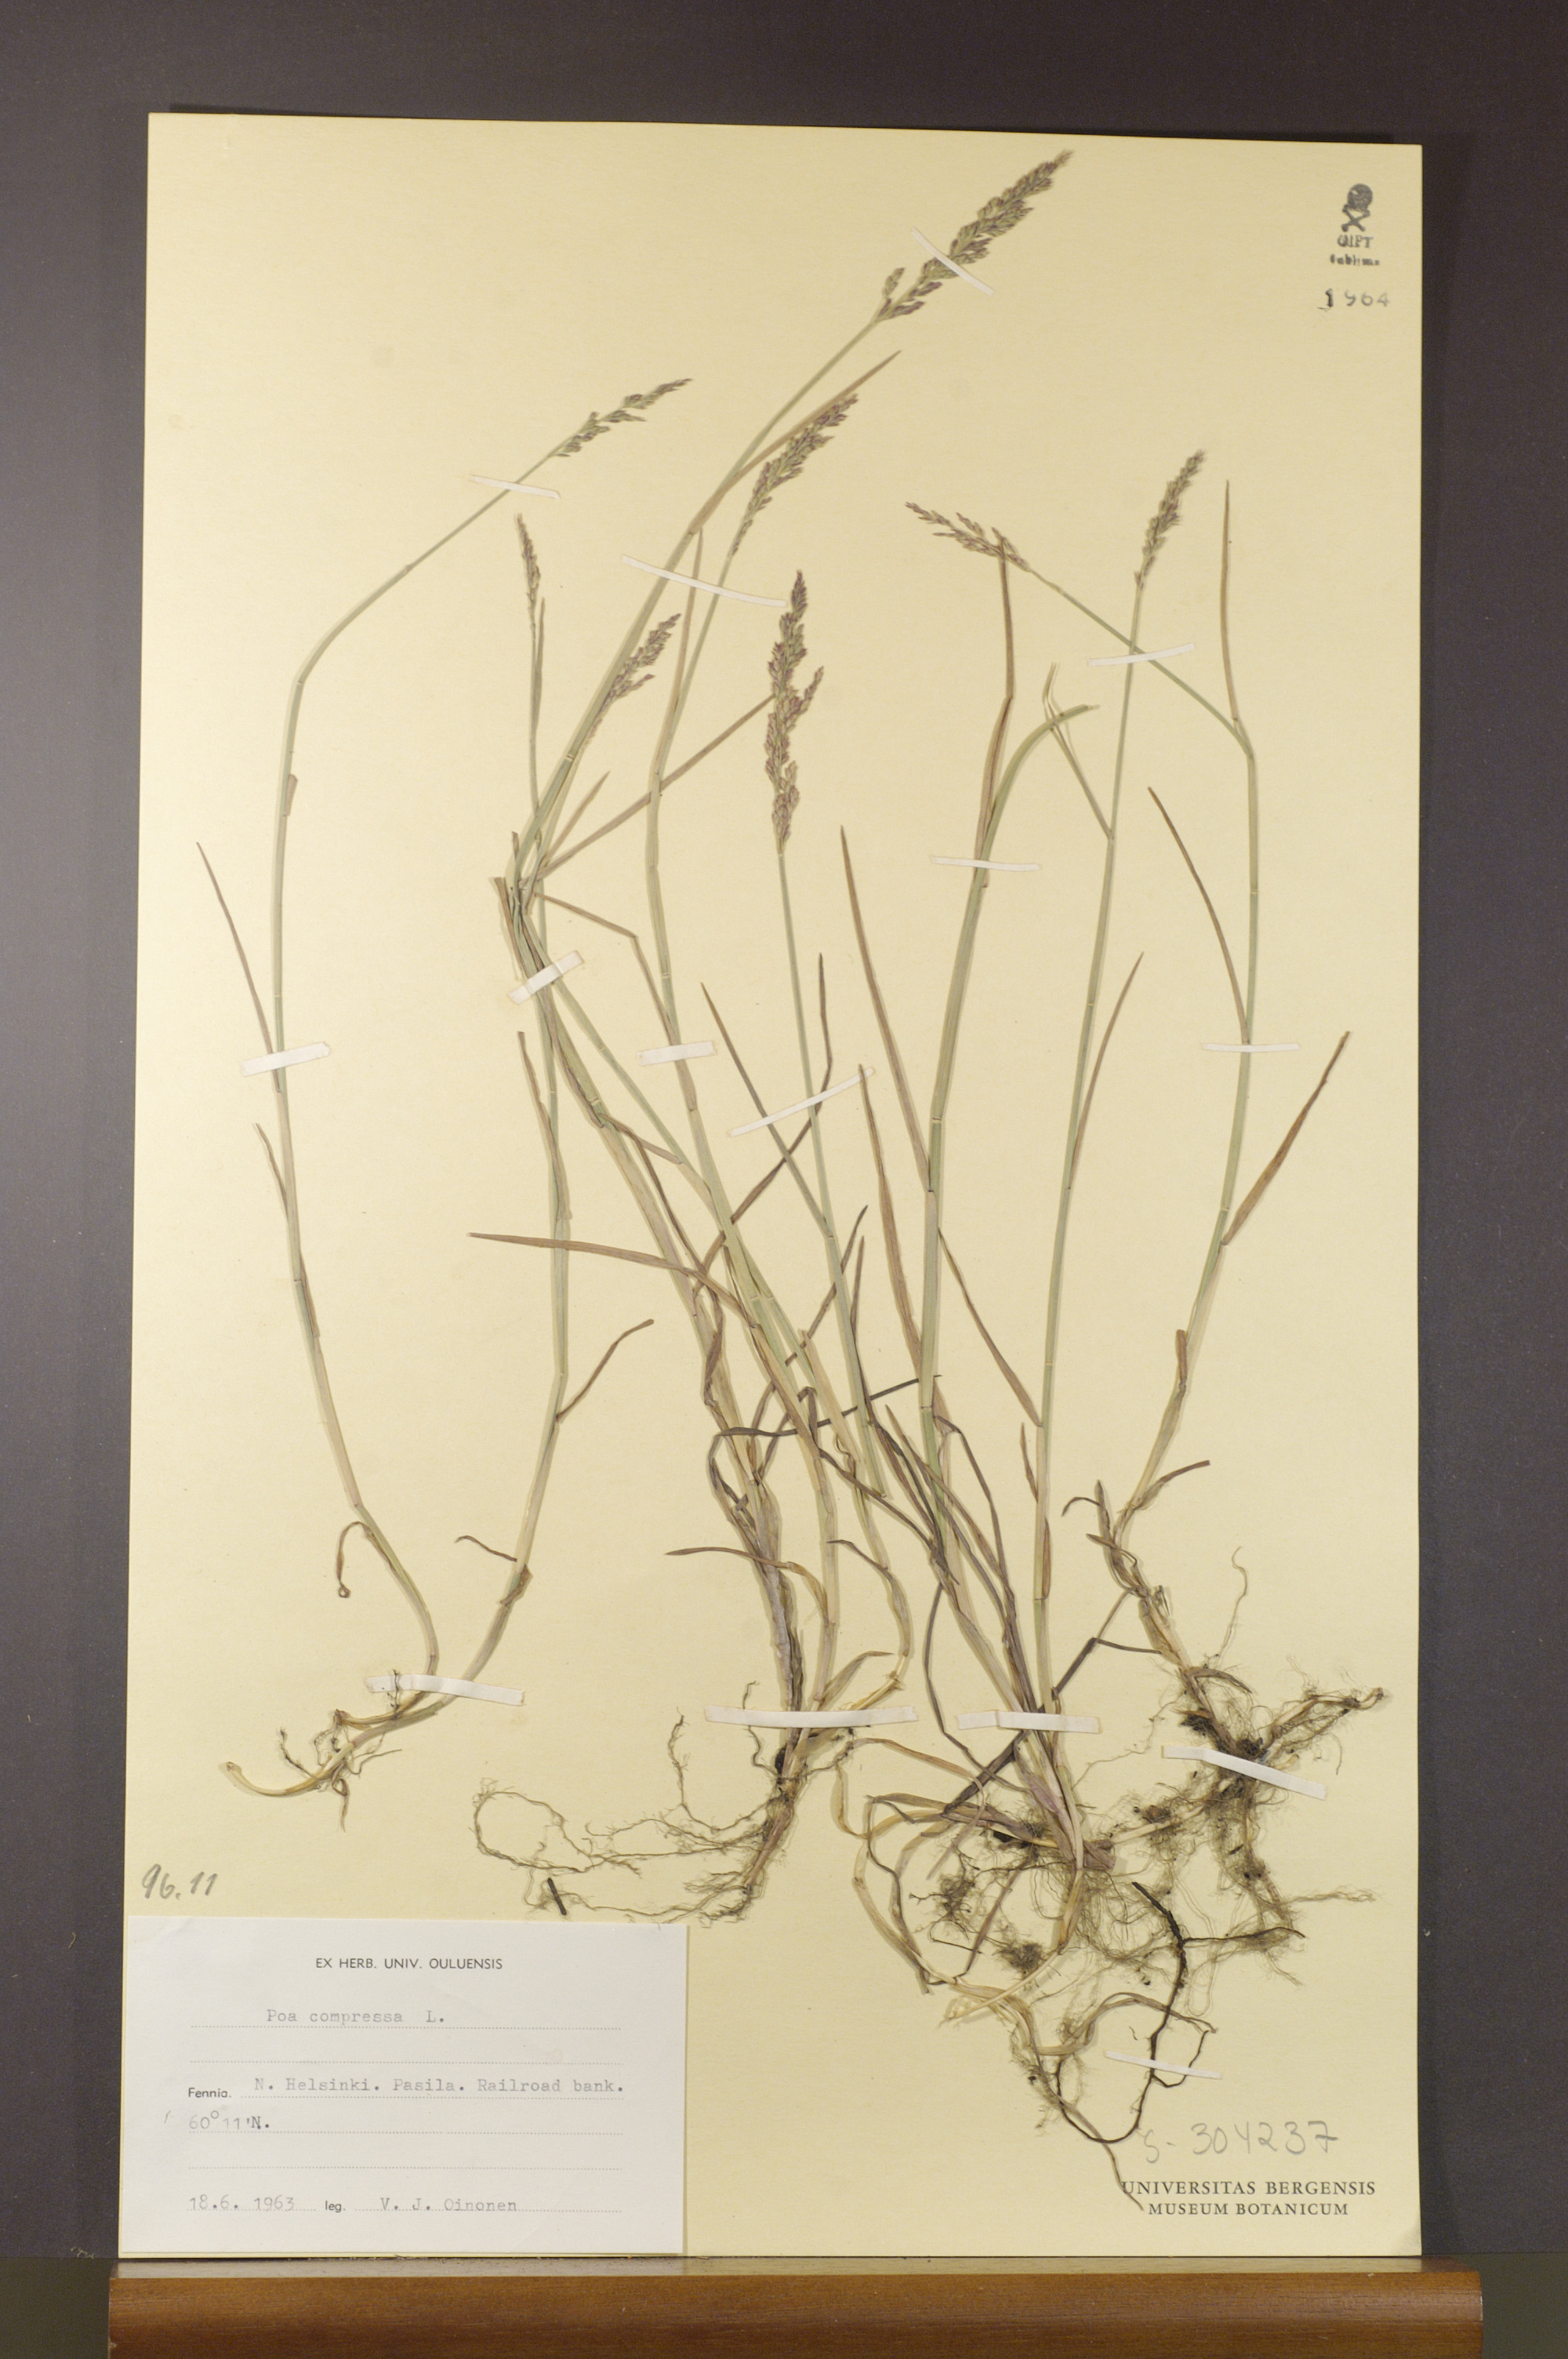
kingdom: Plantae
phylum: Tracheophyta
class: Liliopsida
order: Poales
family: Poaceae
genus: Poa
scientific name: Poa compressa
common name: Canada bluegrass
